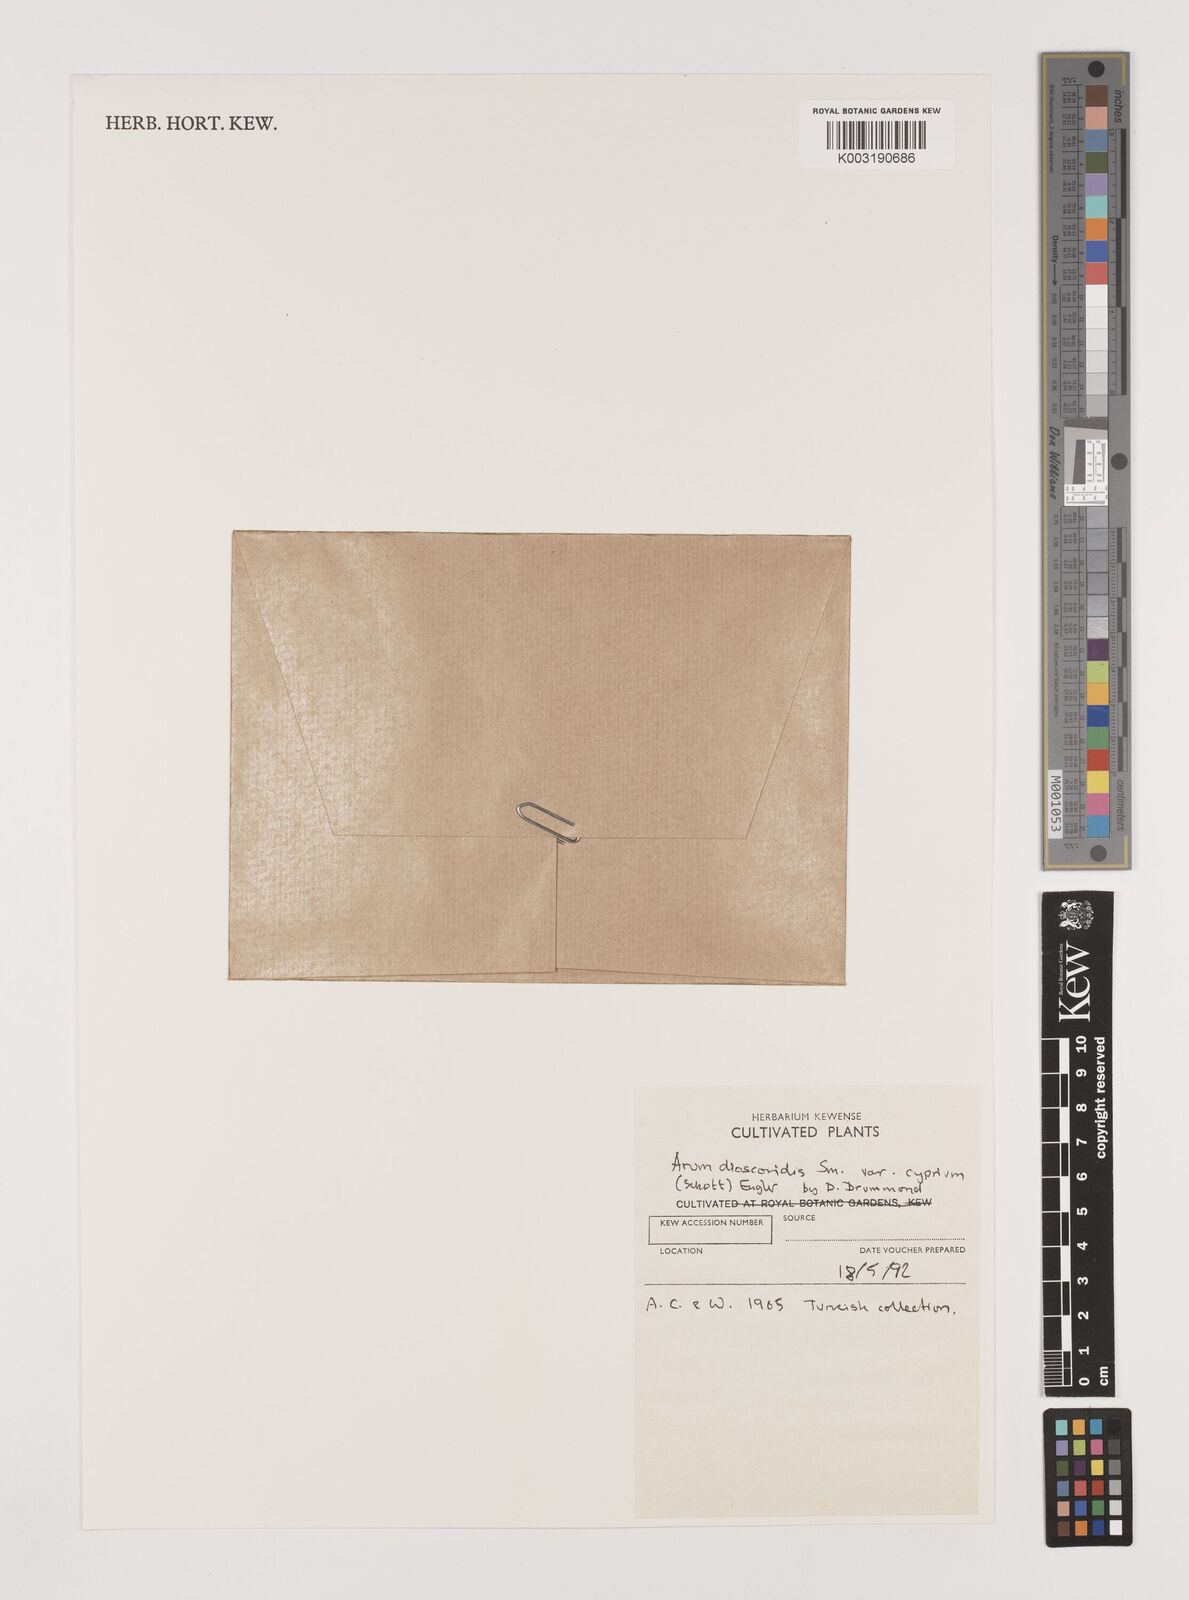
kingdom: Plantae
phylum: Tracheophyta
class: Liliopsida
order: Alismatales
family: Araceae
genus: Arum
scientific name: Arum dioscoridis
